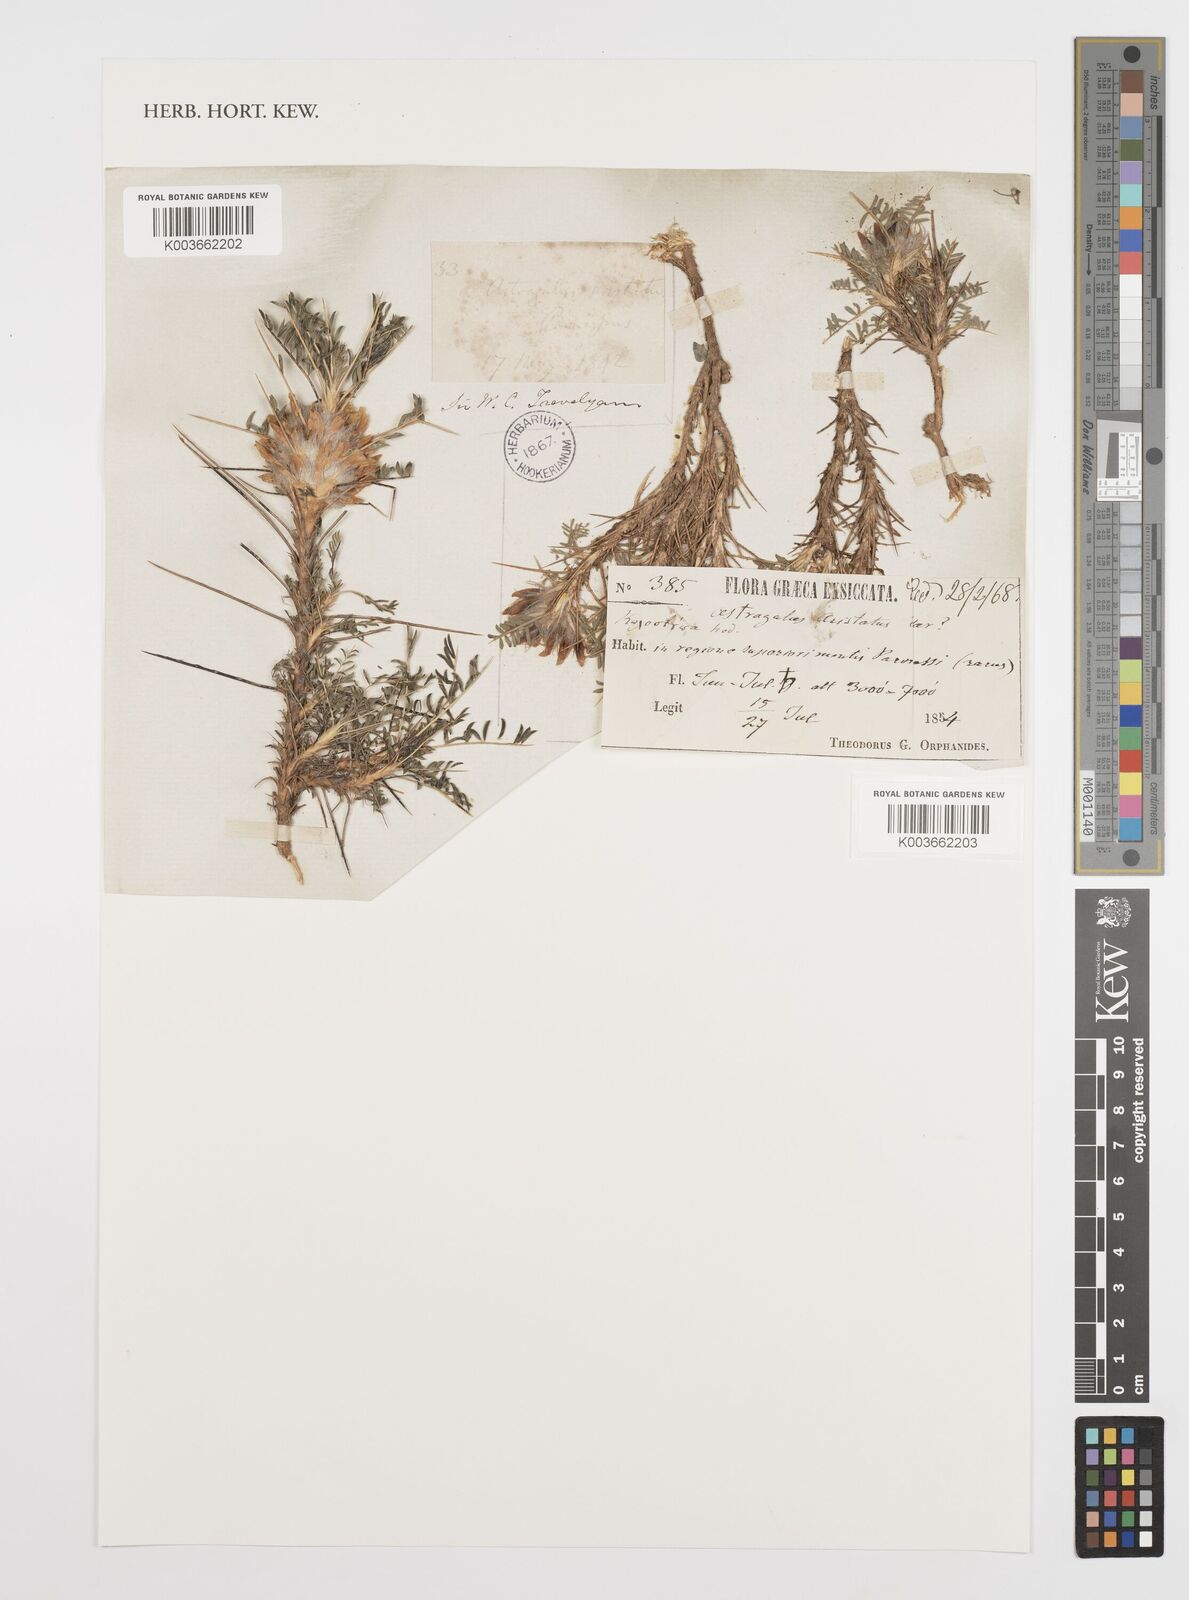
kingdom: Plantae
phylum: Tracheophyta
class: Magnoliopsida
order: Fabales
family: Fabaceae
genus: Astragalus
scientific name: Astragalus parnassi
